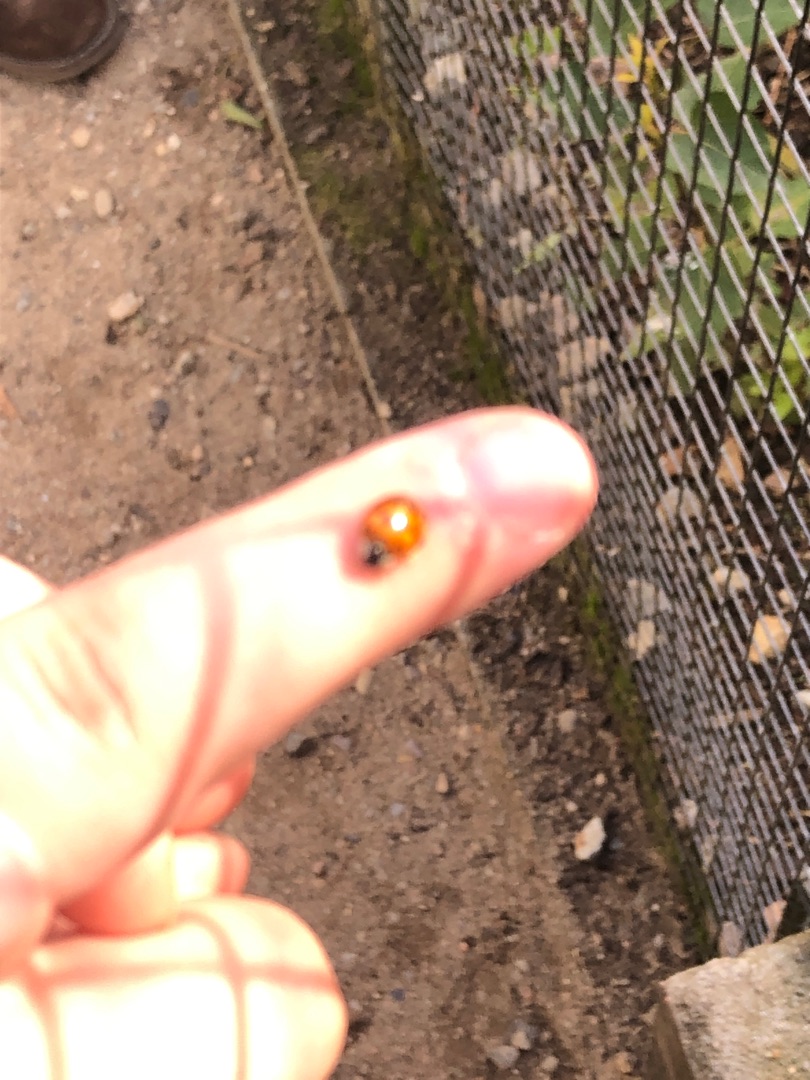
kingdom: Animalia
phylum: Arthropoda
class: Insecta
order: Coleoptera
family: Coccinellidae
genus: Harmonia
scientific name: Harmonia axyridis
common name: Harlekinmariehøne
